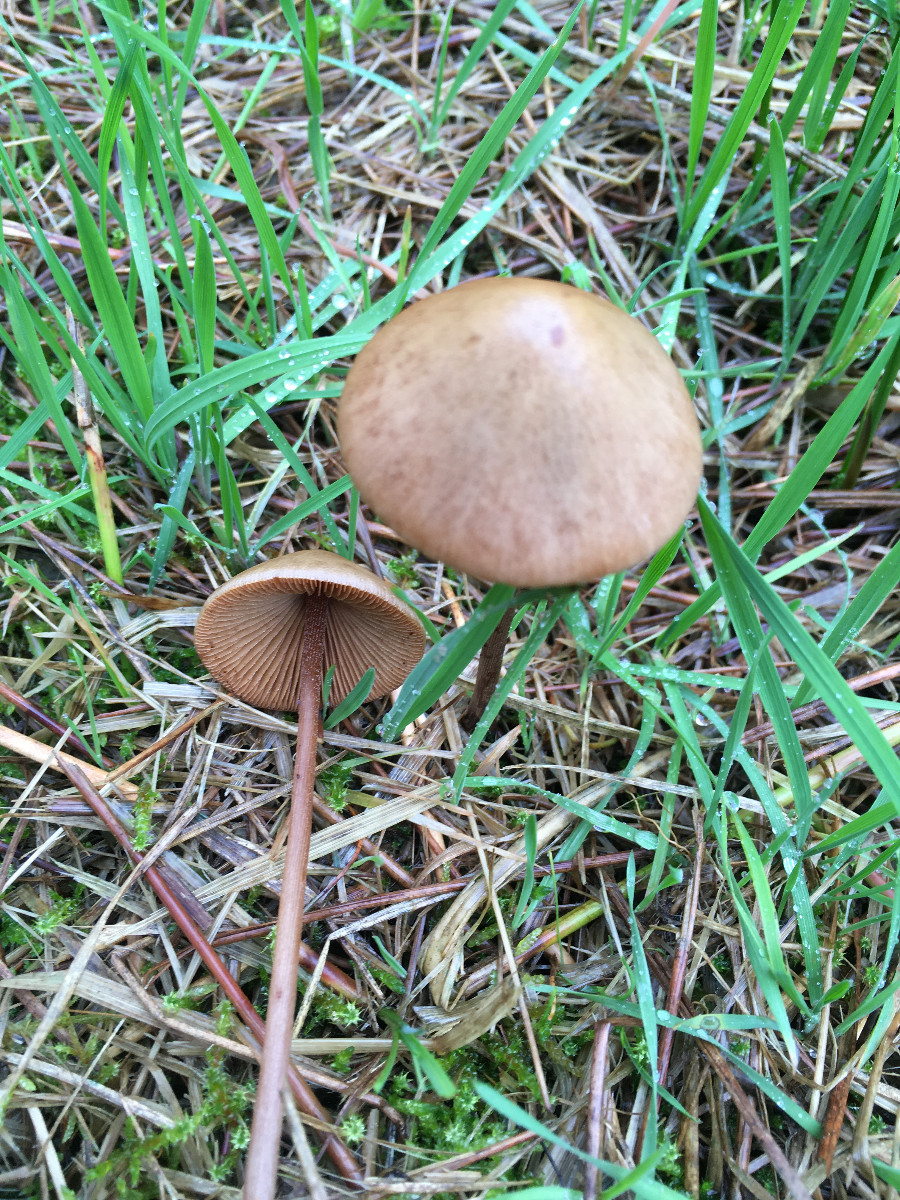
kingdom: Fungi
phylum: Basidiomycota
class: Agaricomycetes
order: Agaricales
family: Bolbitiaceae
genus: Conocybe
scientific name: Conocybe
